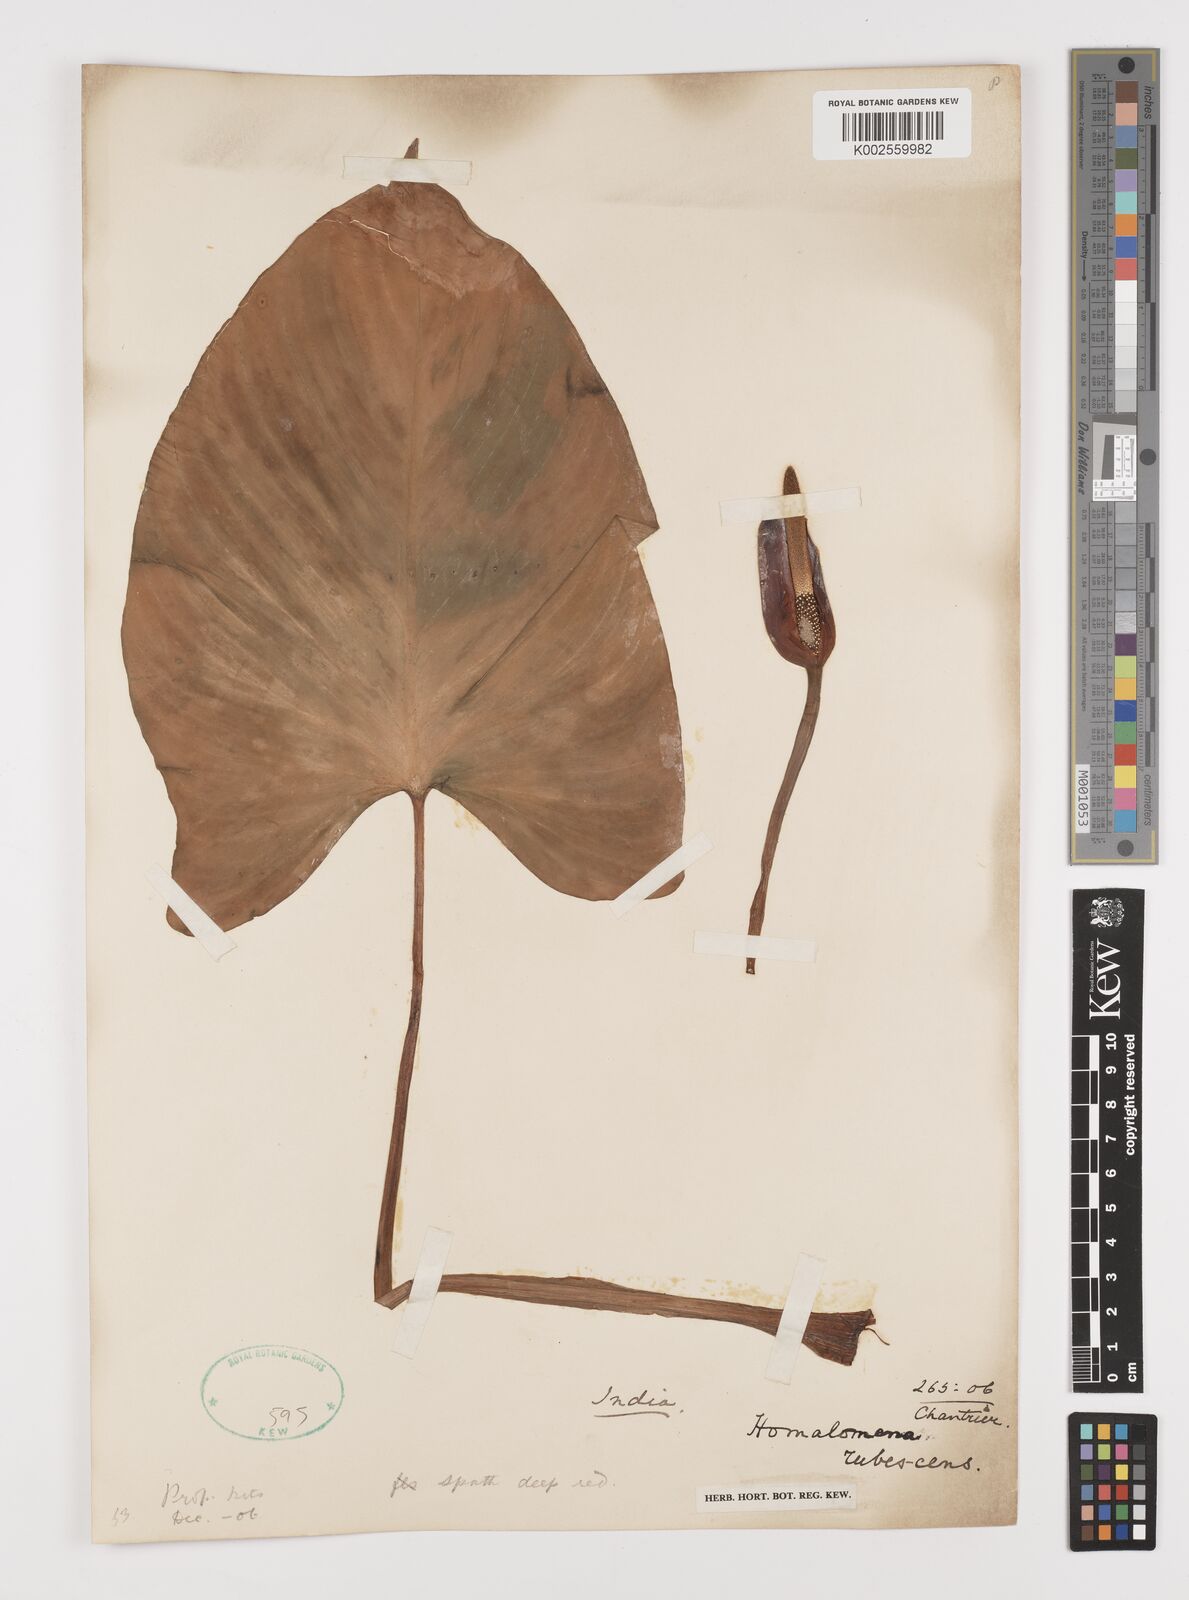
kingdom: Plantae
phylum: Tracheophyta
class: Liliopsida
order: Alismatales
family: Araceae
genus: Homalomena
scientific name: Homalomena rubescens
